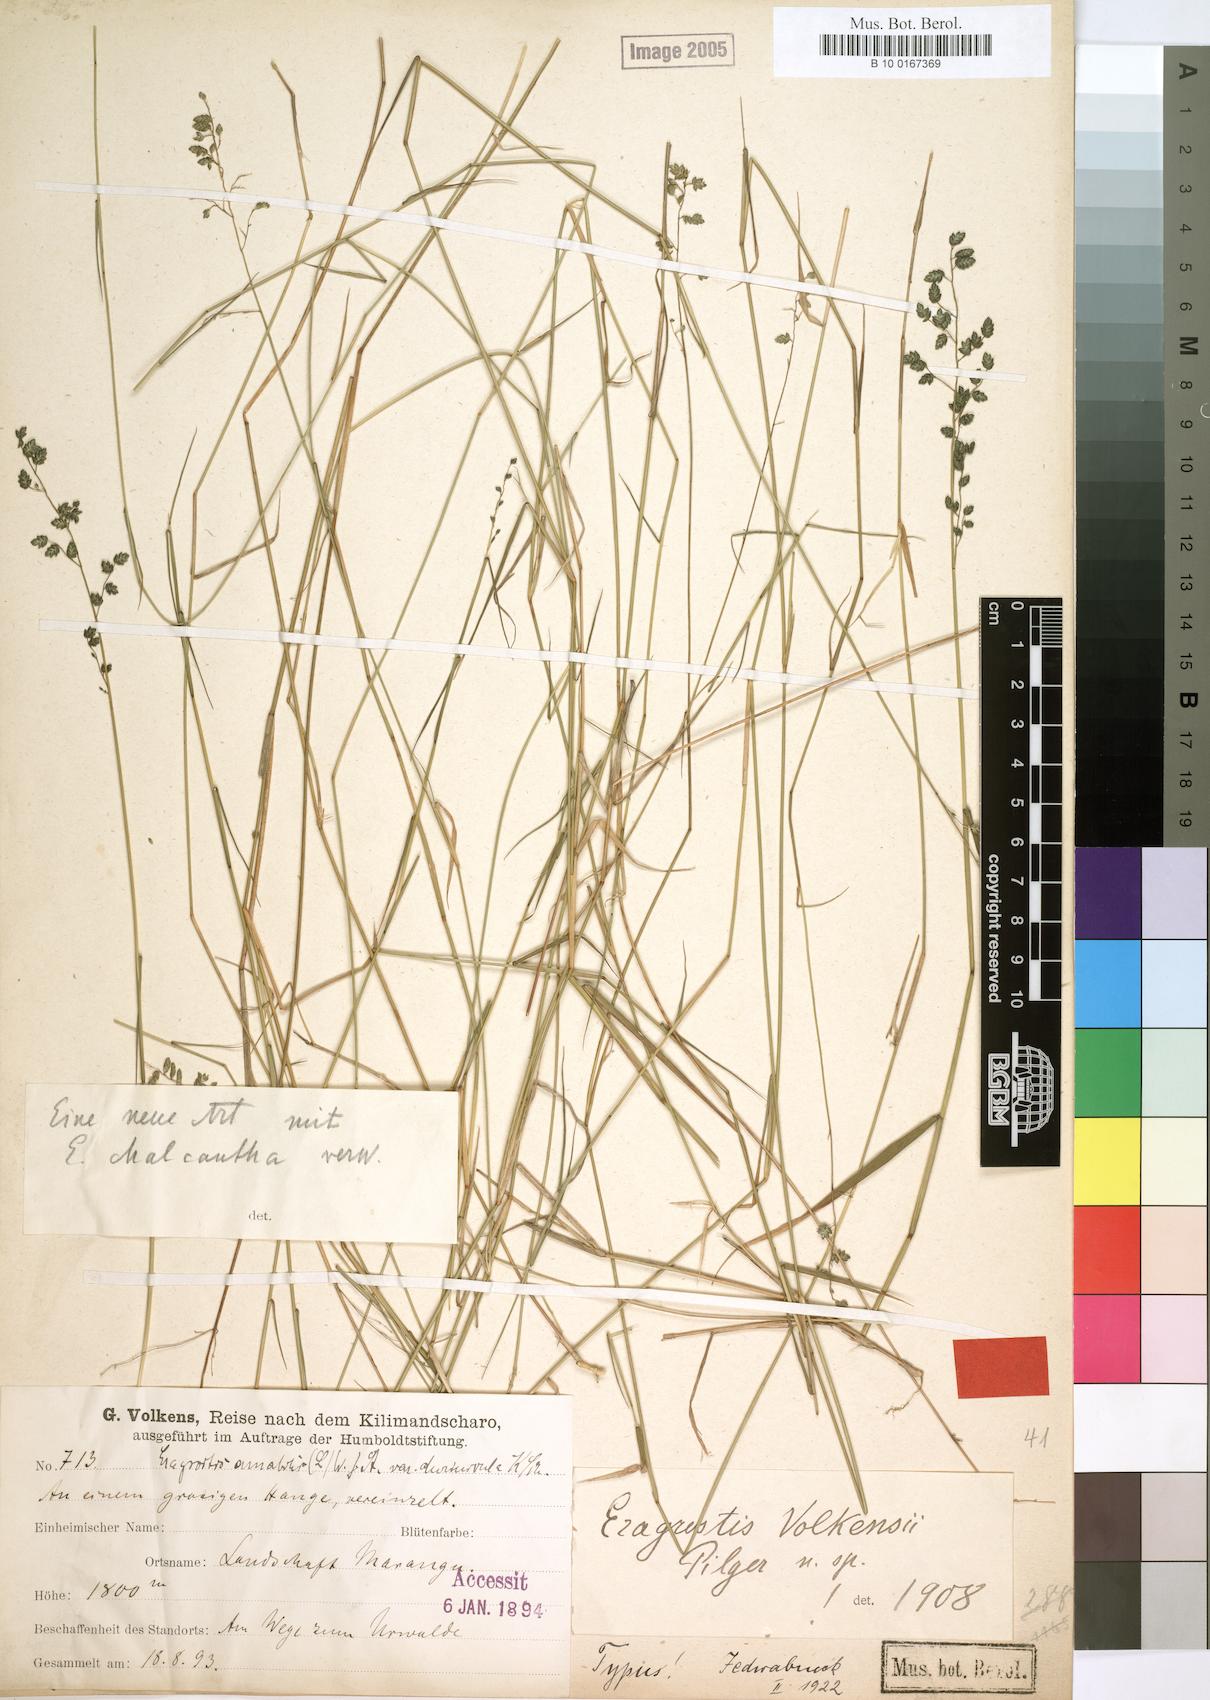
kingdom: Plantae
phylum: Tracheophyta
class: Liliopsida
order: Poales
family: Poaceae
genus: Eragrostis
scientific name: Eragrostis volkensii
